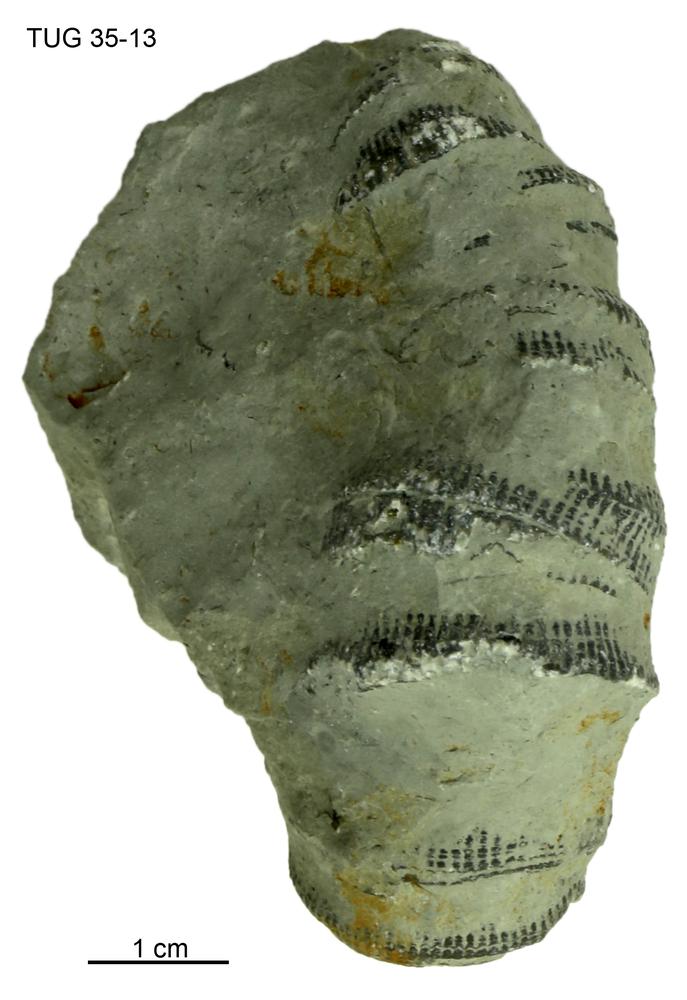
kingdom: Animalia
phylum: Cnidaria
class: Anthozoa
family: Streptelasmatidae
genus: Streptelasma
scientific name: Streptelasma
